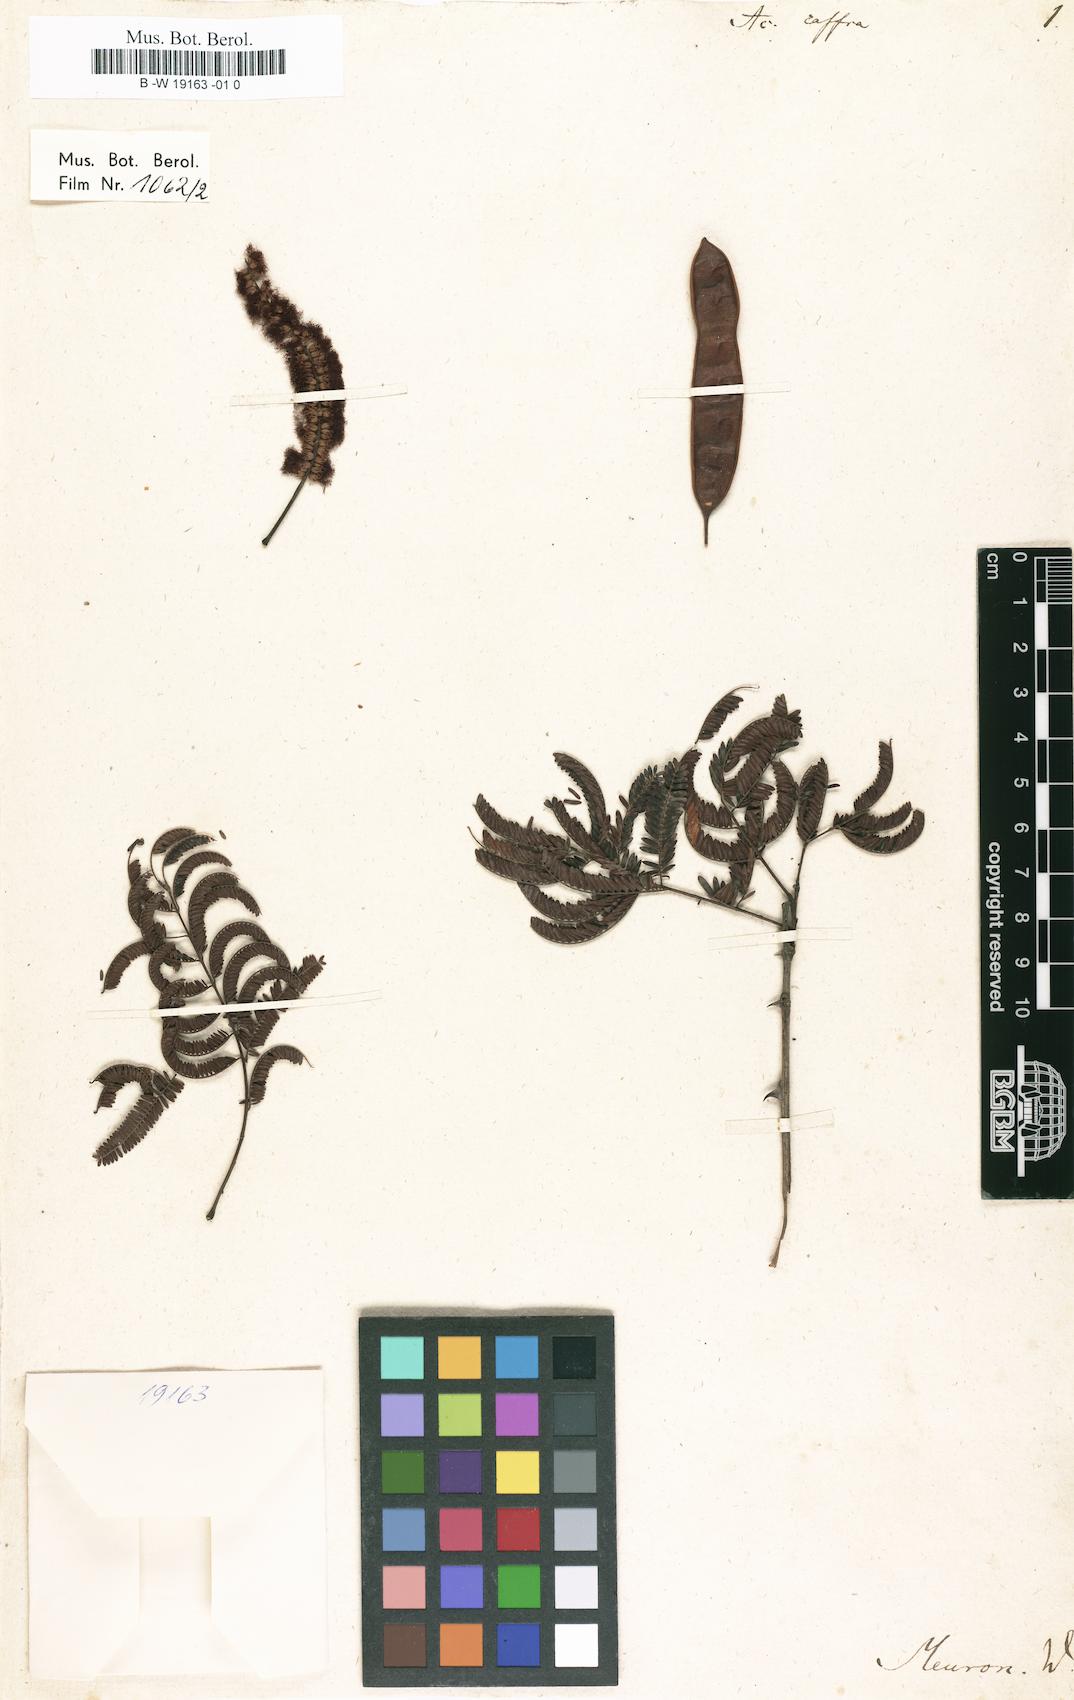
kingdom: Plantae
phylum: Tracheophyta
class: Magnoliopsida
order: Fabales
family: Fabaceae
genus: Senegalia
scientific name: Senegalia caffra
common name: Cat thorn
